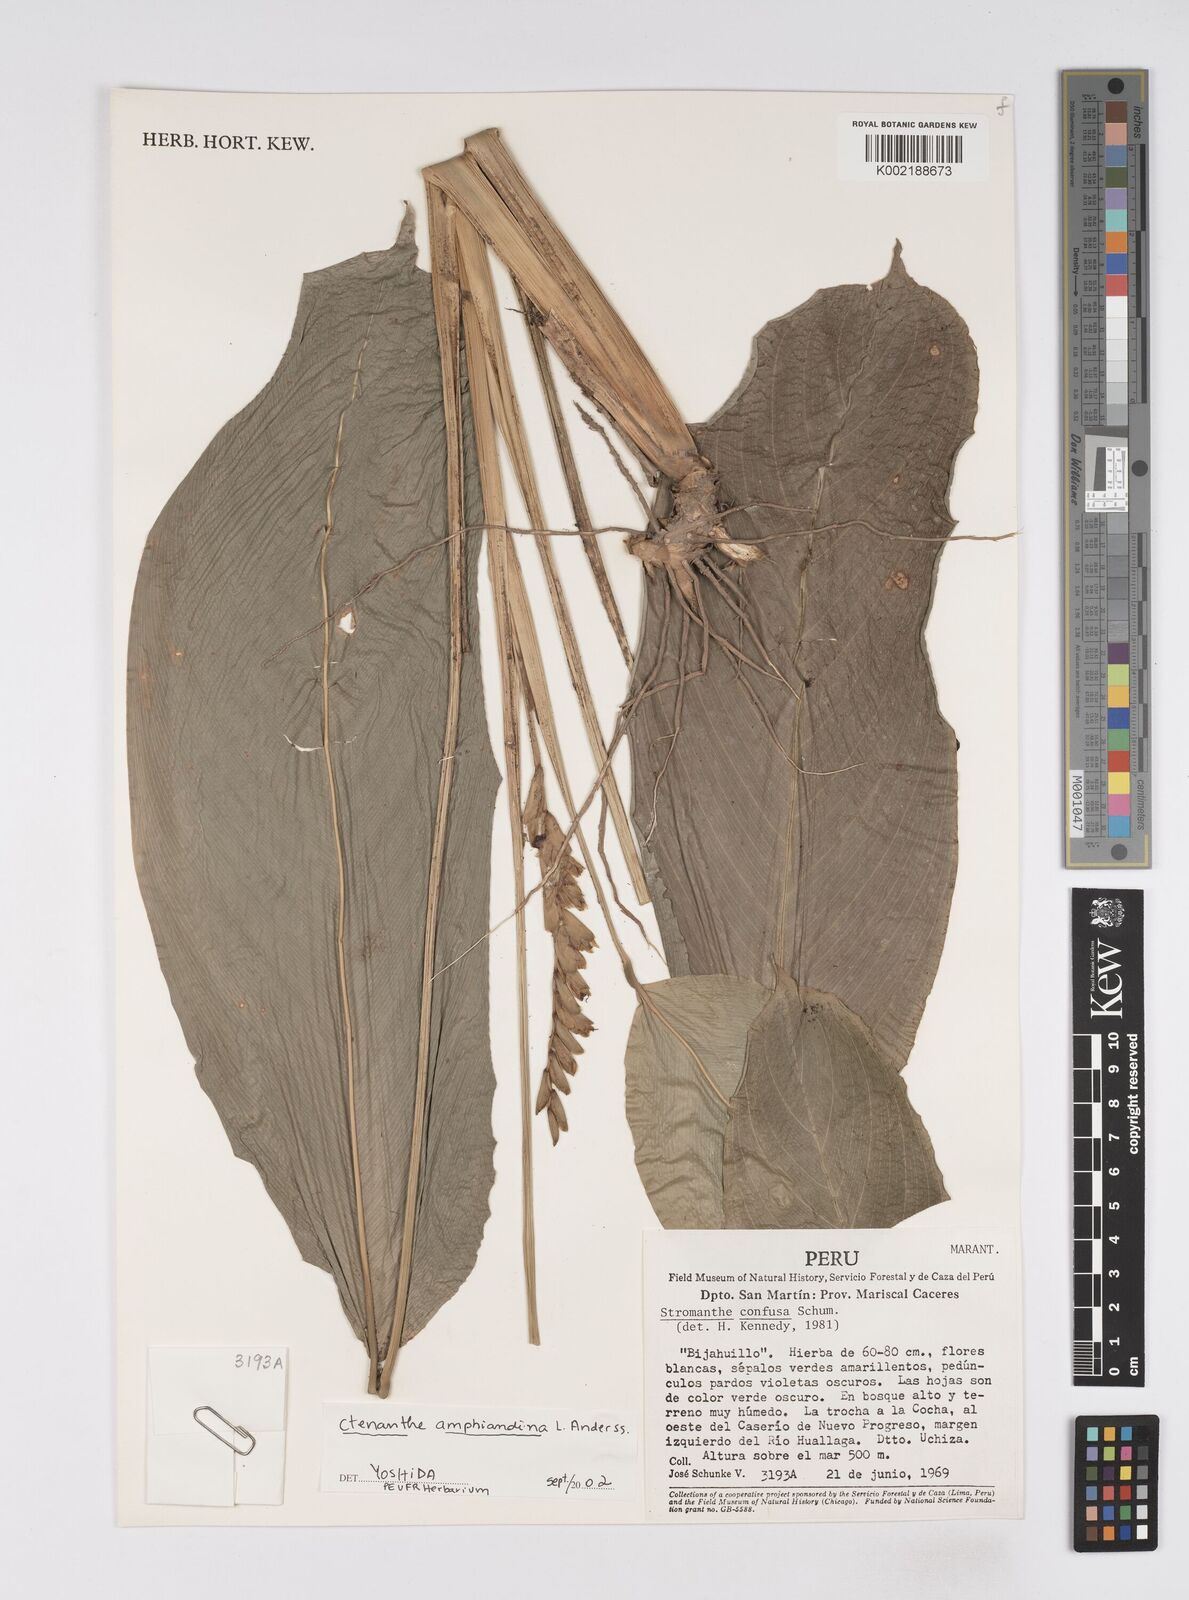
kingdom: Plantae
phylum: Tracheophyta
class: Liliopsida
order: Zingiberales
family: Marantaceae
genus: Ctenanthe
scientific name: Ctenanthe amphiandina
